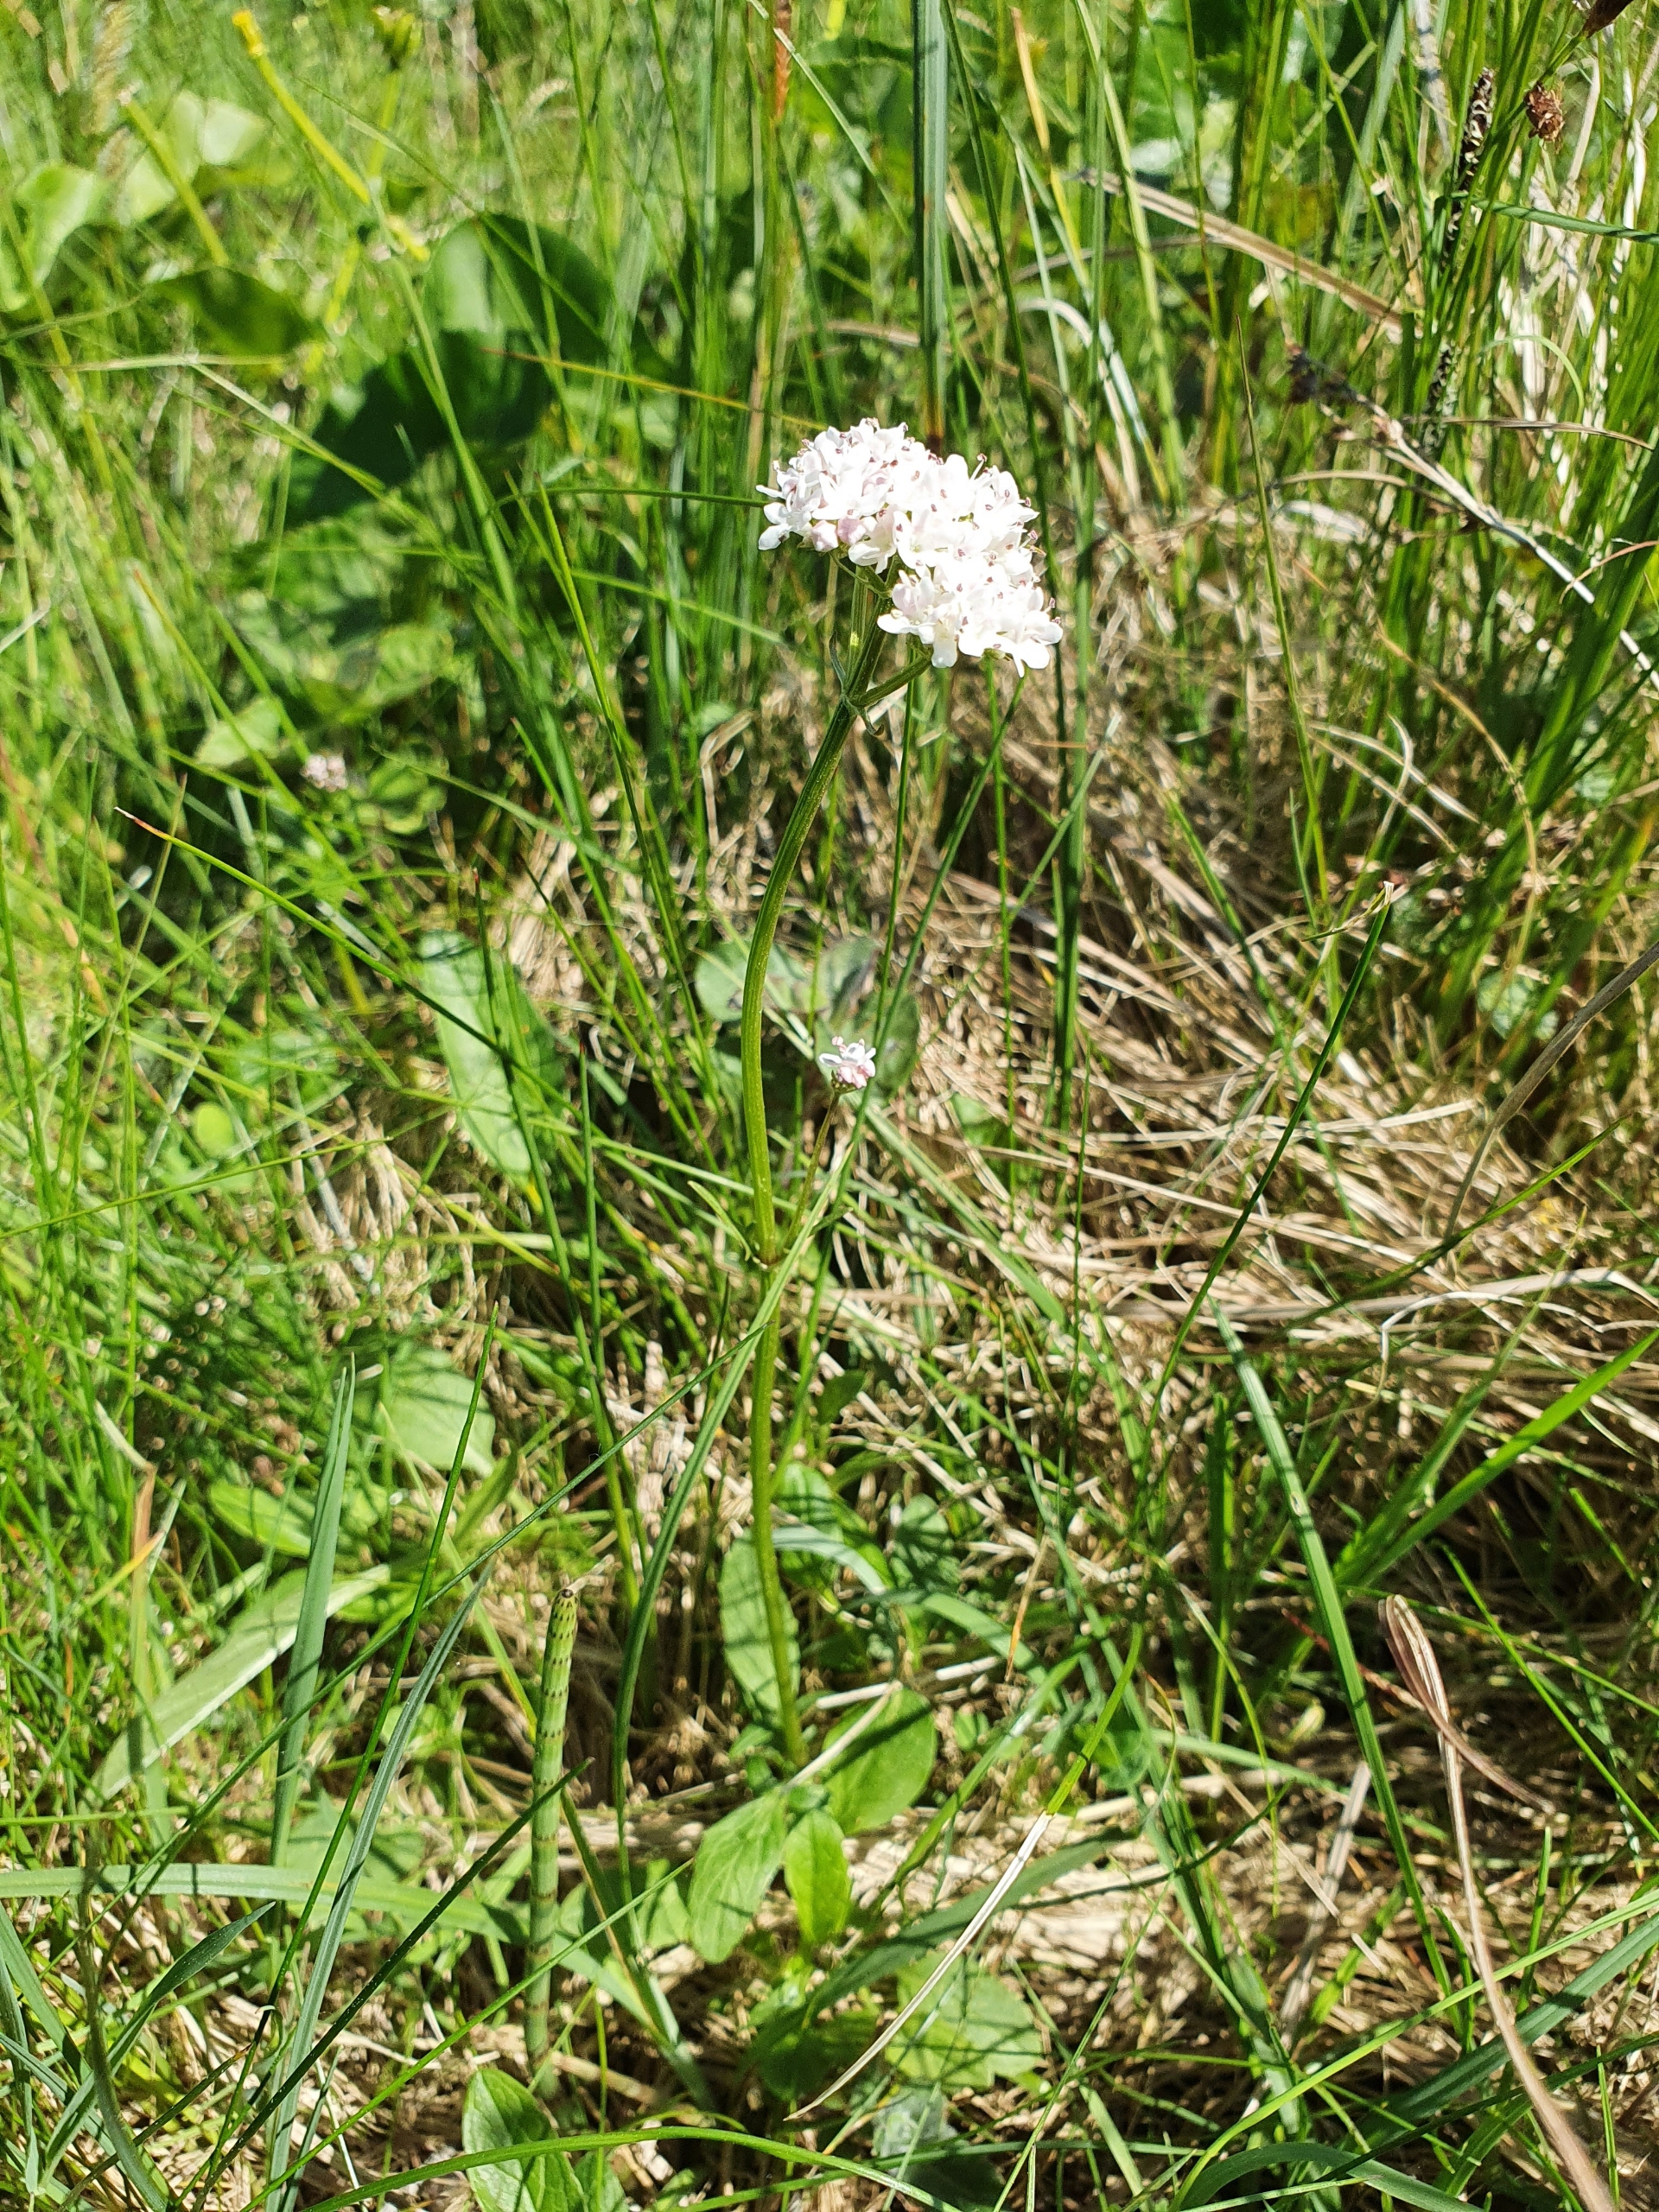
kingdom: Plantae
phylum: Tracheophyta
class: Magnoliopsida
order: Dipsacales
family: Caprifoliaceae
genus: Valeriana
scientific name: Valeriana dioica
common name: Tvebo baldrian
